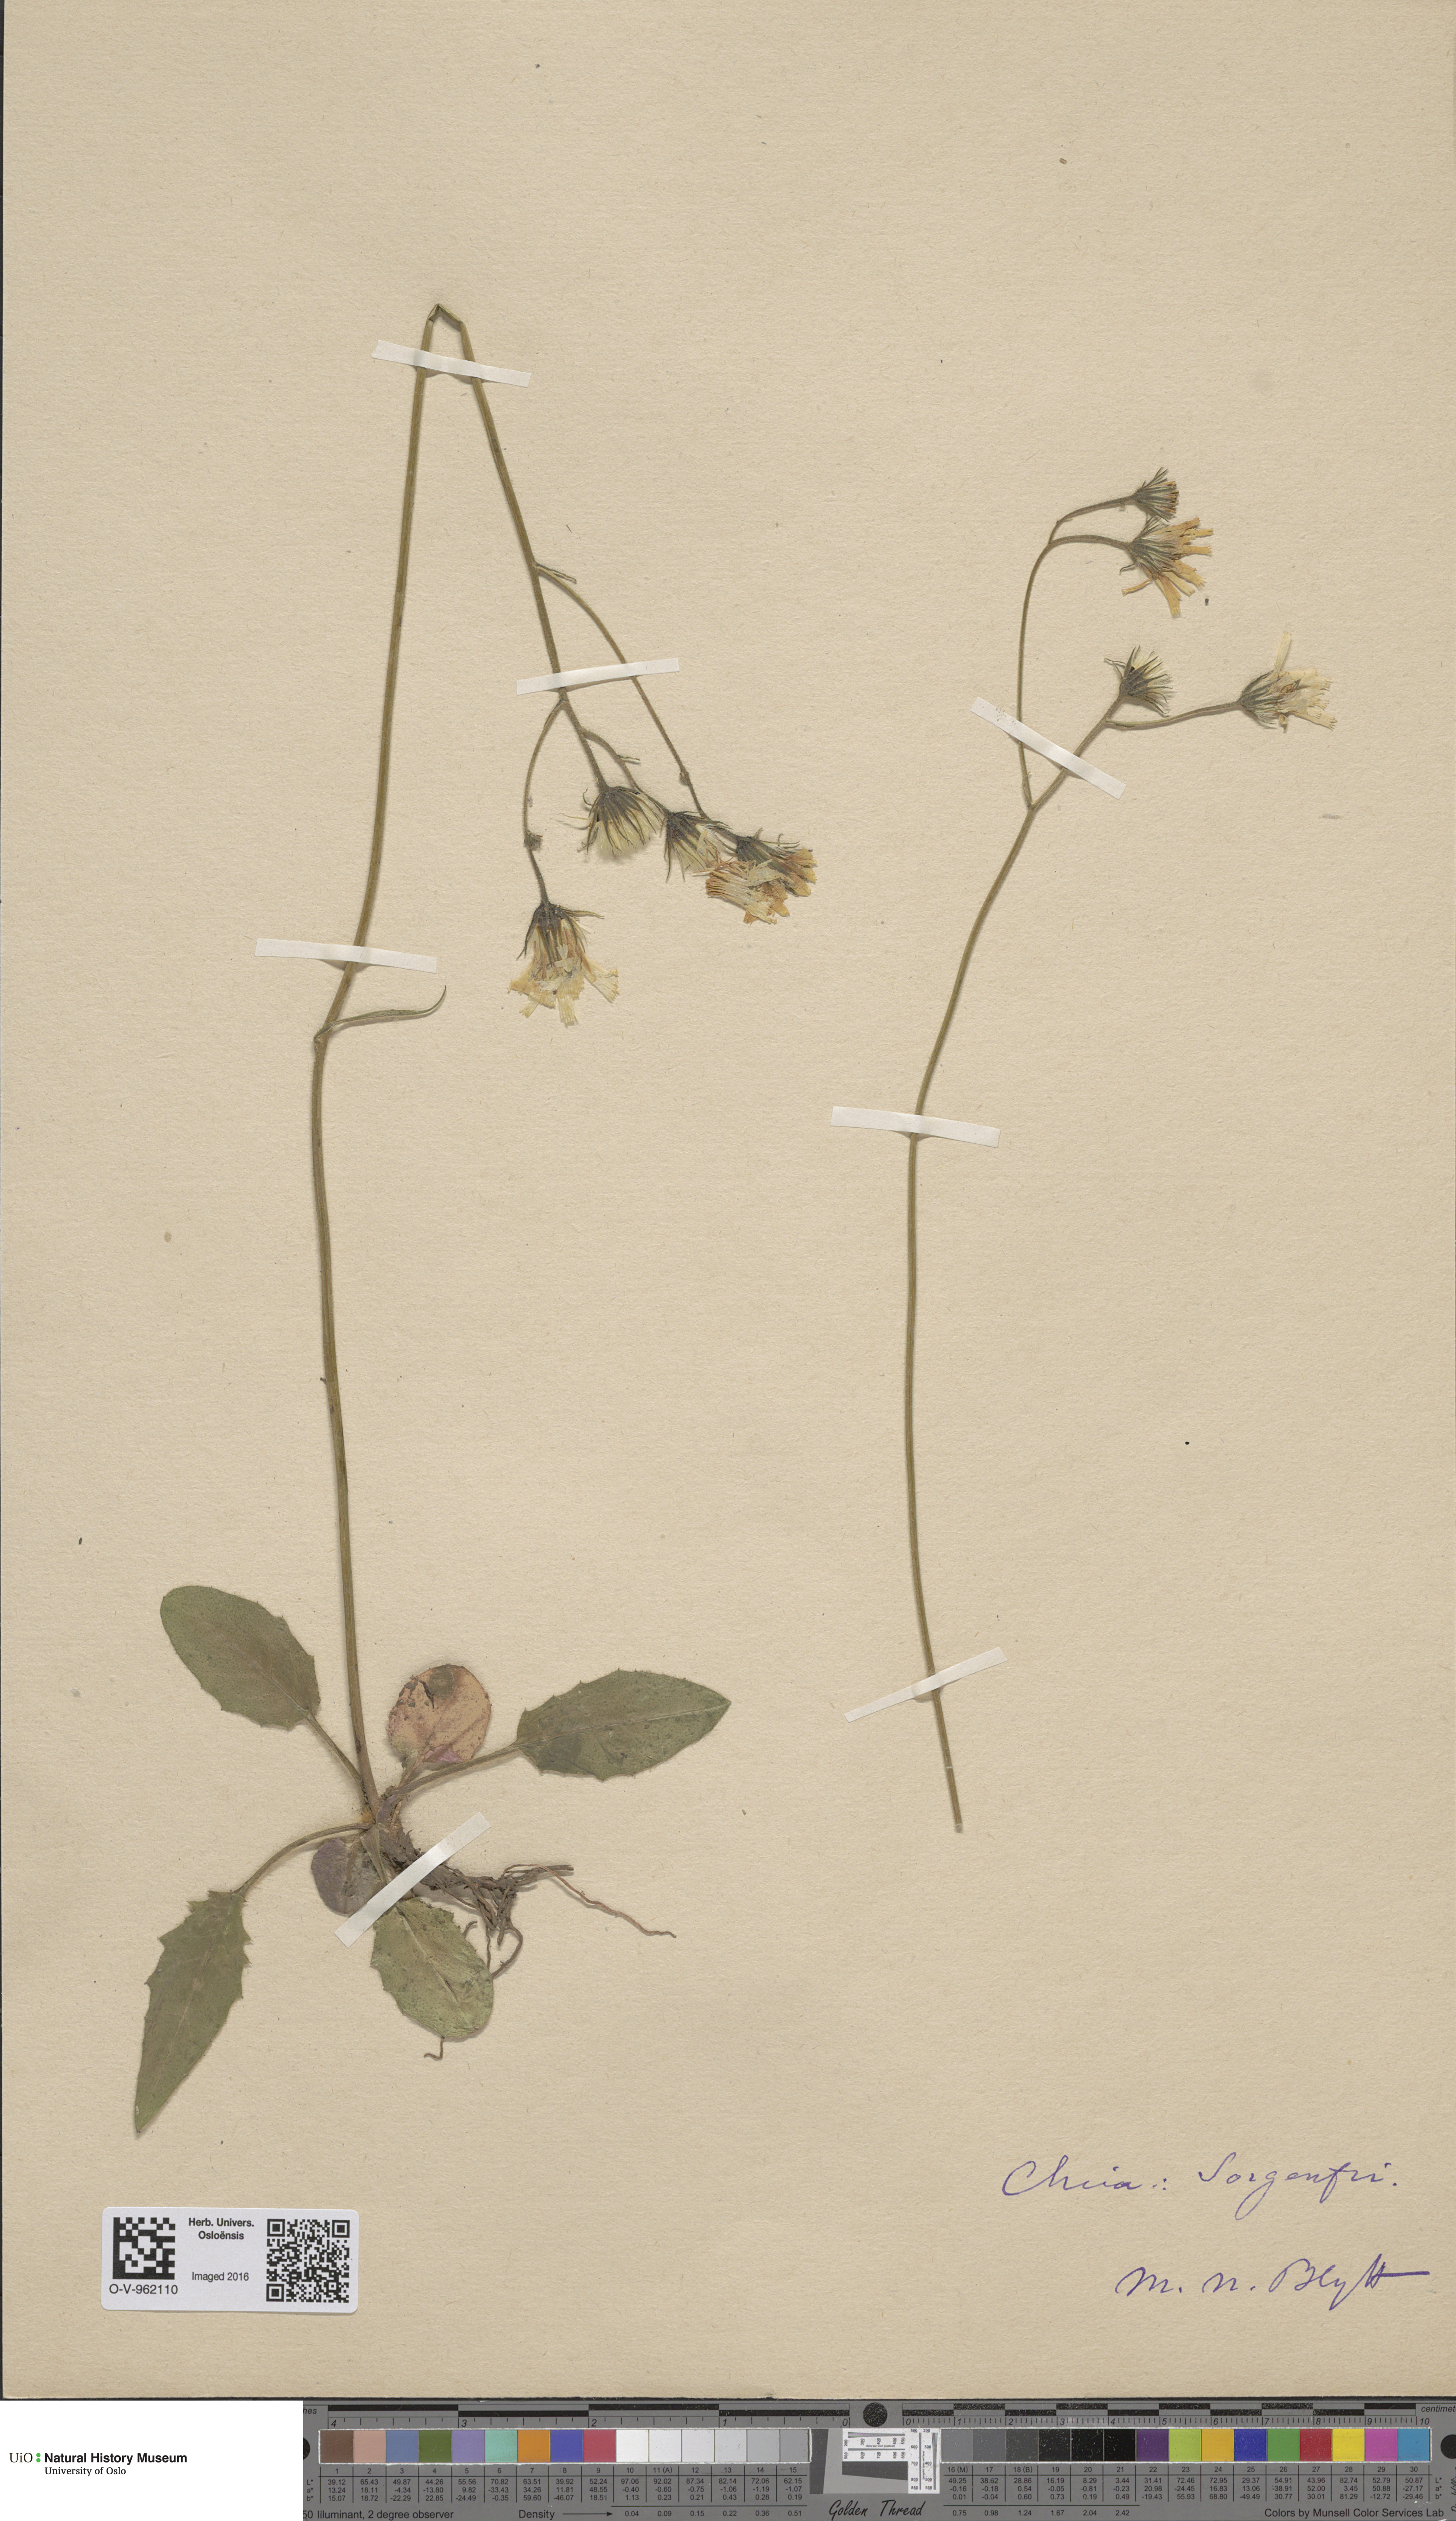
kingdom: Plantae
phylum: Tracheophyta
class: Magnoliopsida
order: Asterales
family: Asteraceae
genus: Hieracium
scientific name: Hieracium
